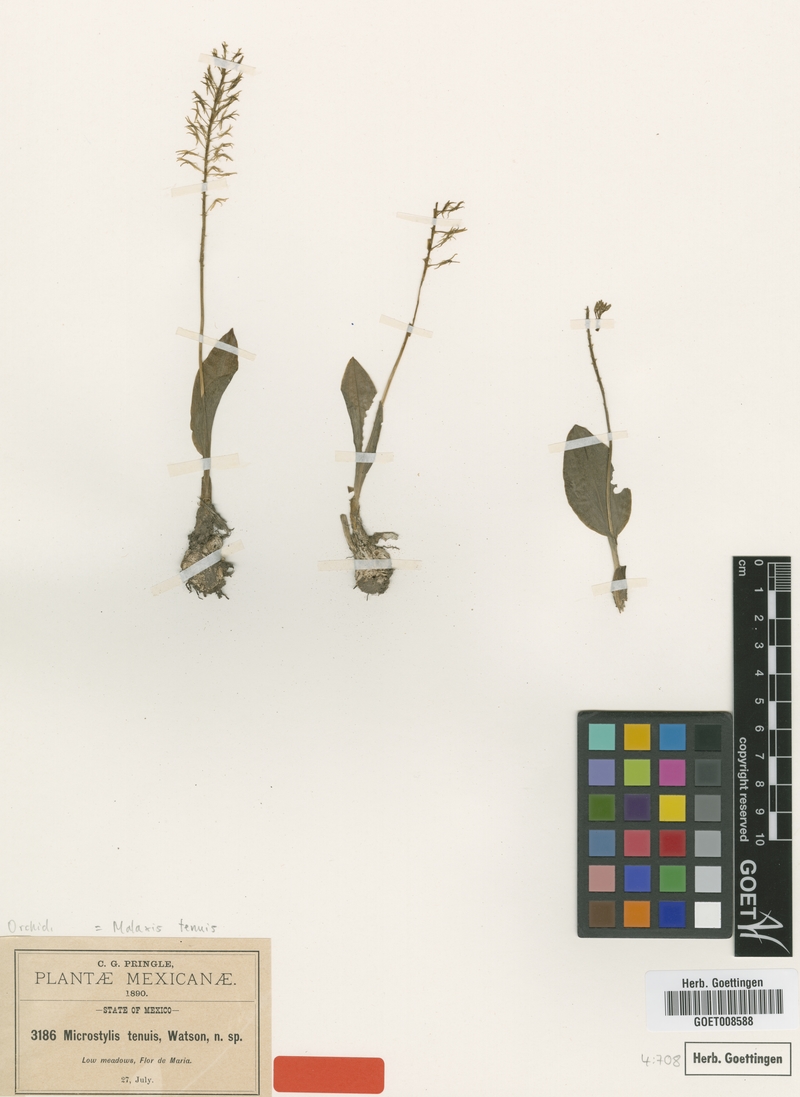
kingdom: Plantae
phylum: Tracheophyta
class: Liliopsida
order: Asparagales
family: Orchidaceae
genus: Malaxis
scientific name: Malaxis abieticola
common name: Arizona adder's-mouth orchid
